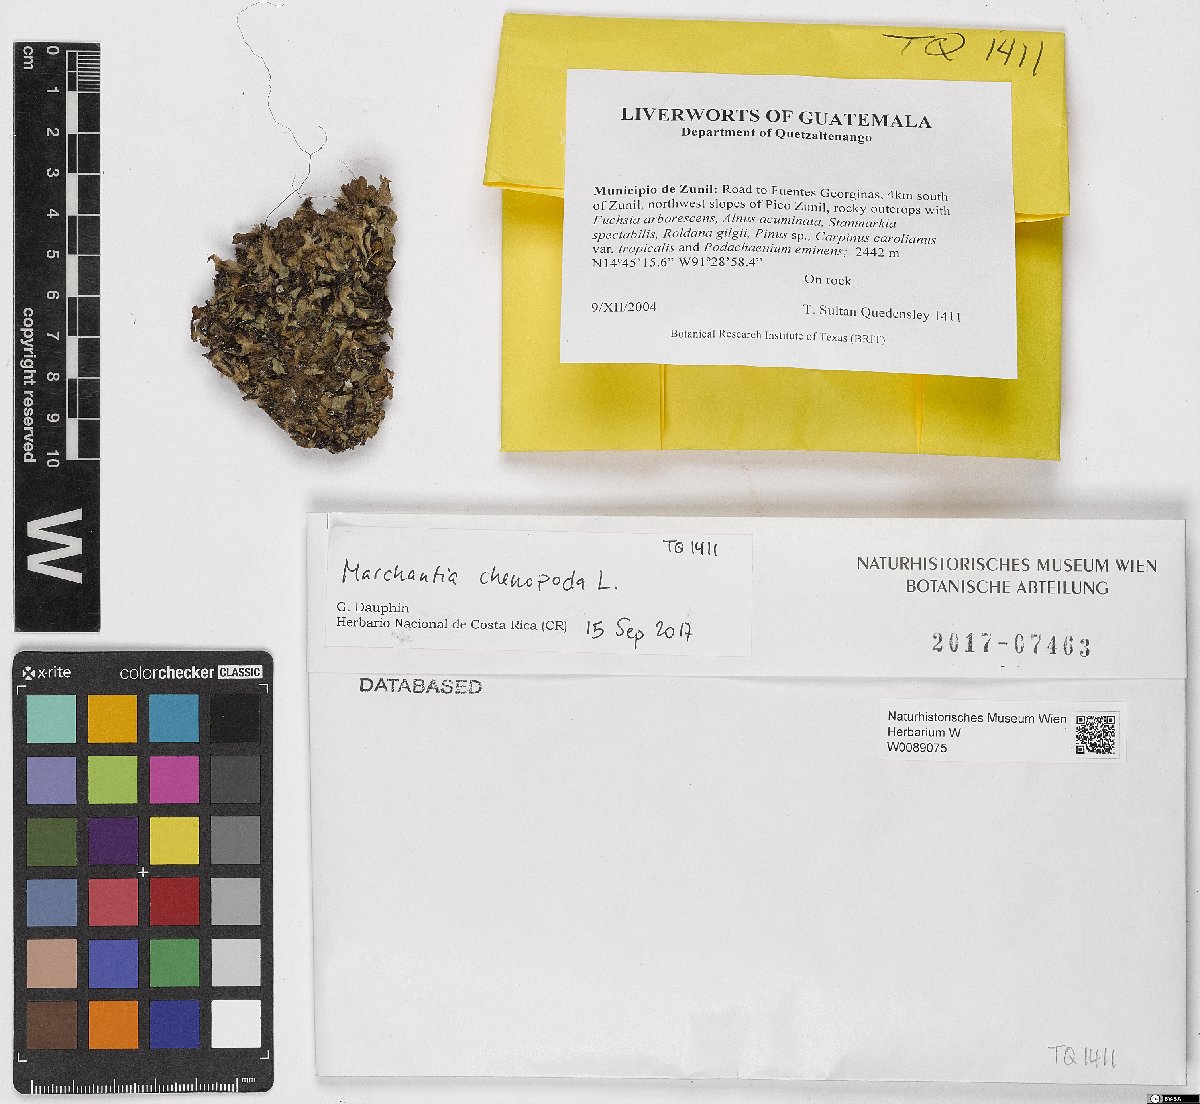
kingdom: Plantae
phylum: Marchantiophyta
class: Marchantiopsida
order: Marchantiales
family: Marchantiaceae
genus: Marchantia
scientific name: Marchantia chenopoda
